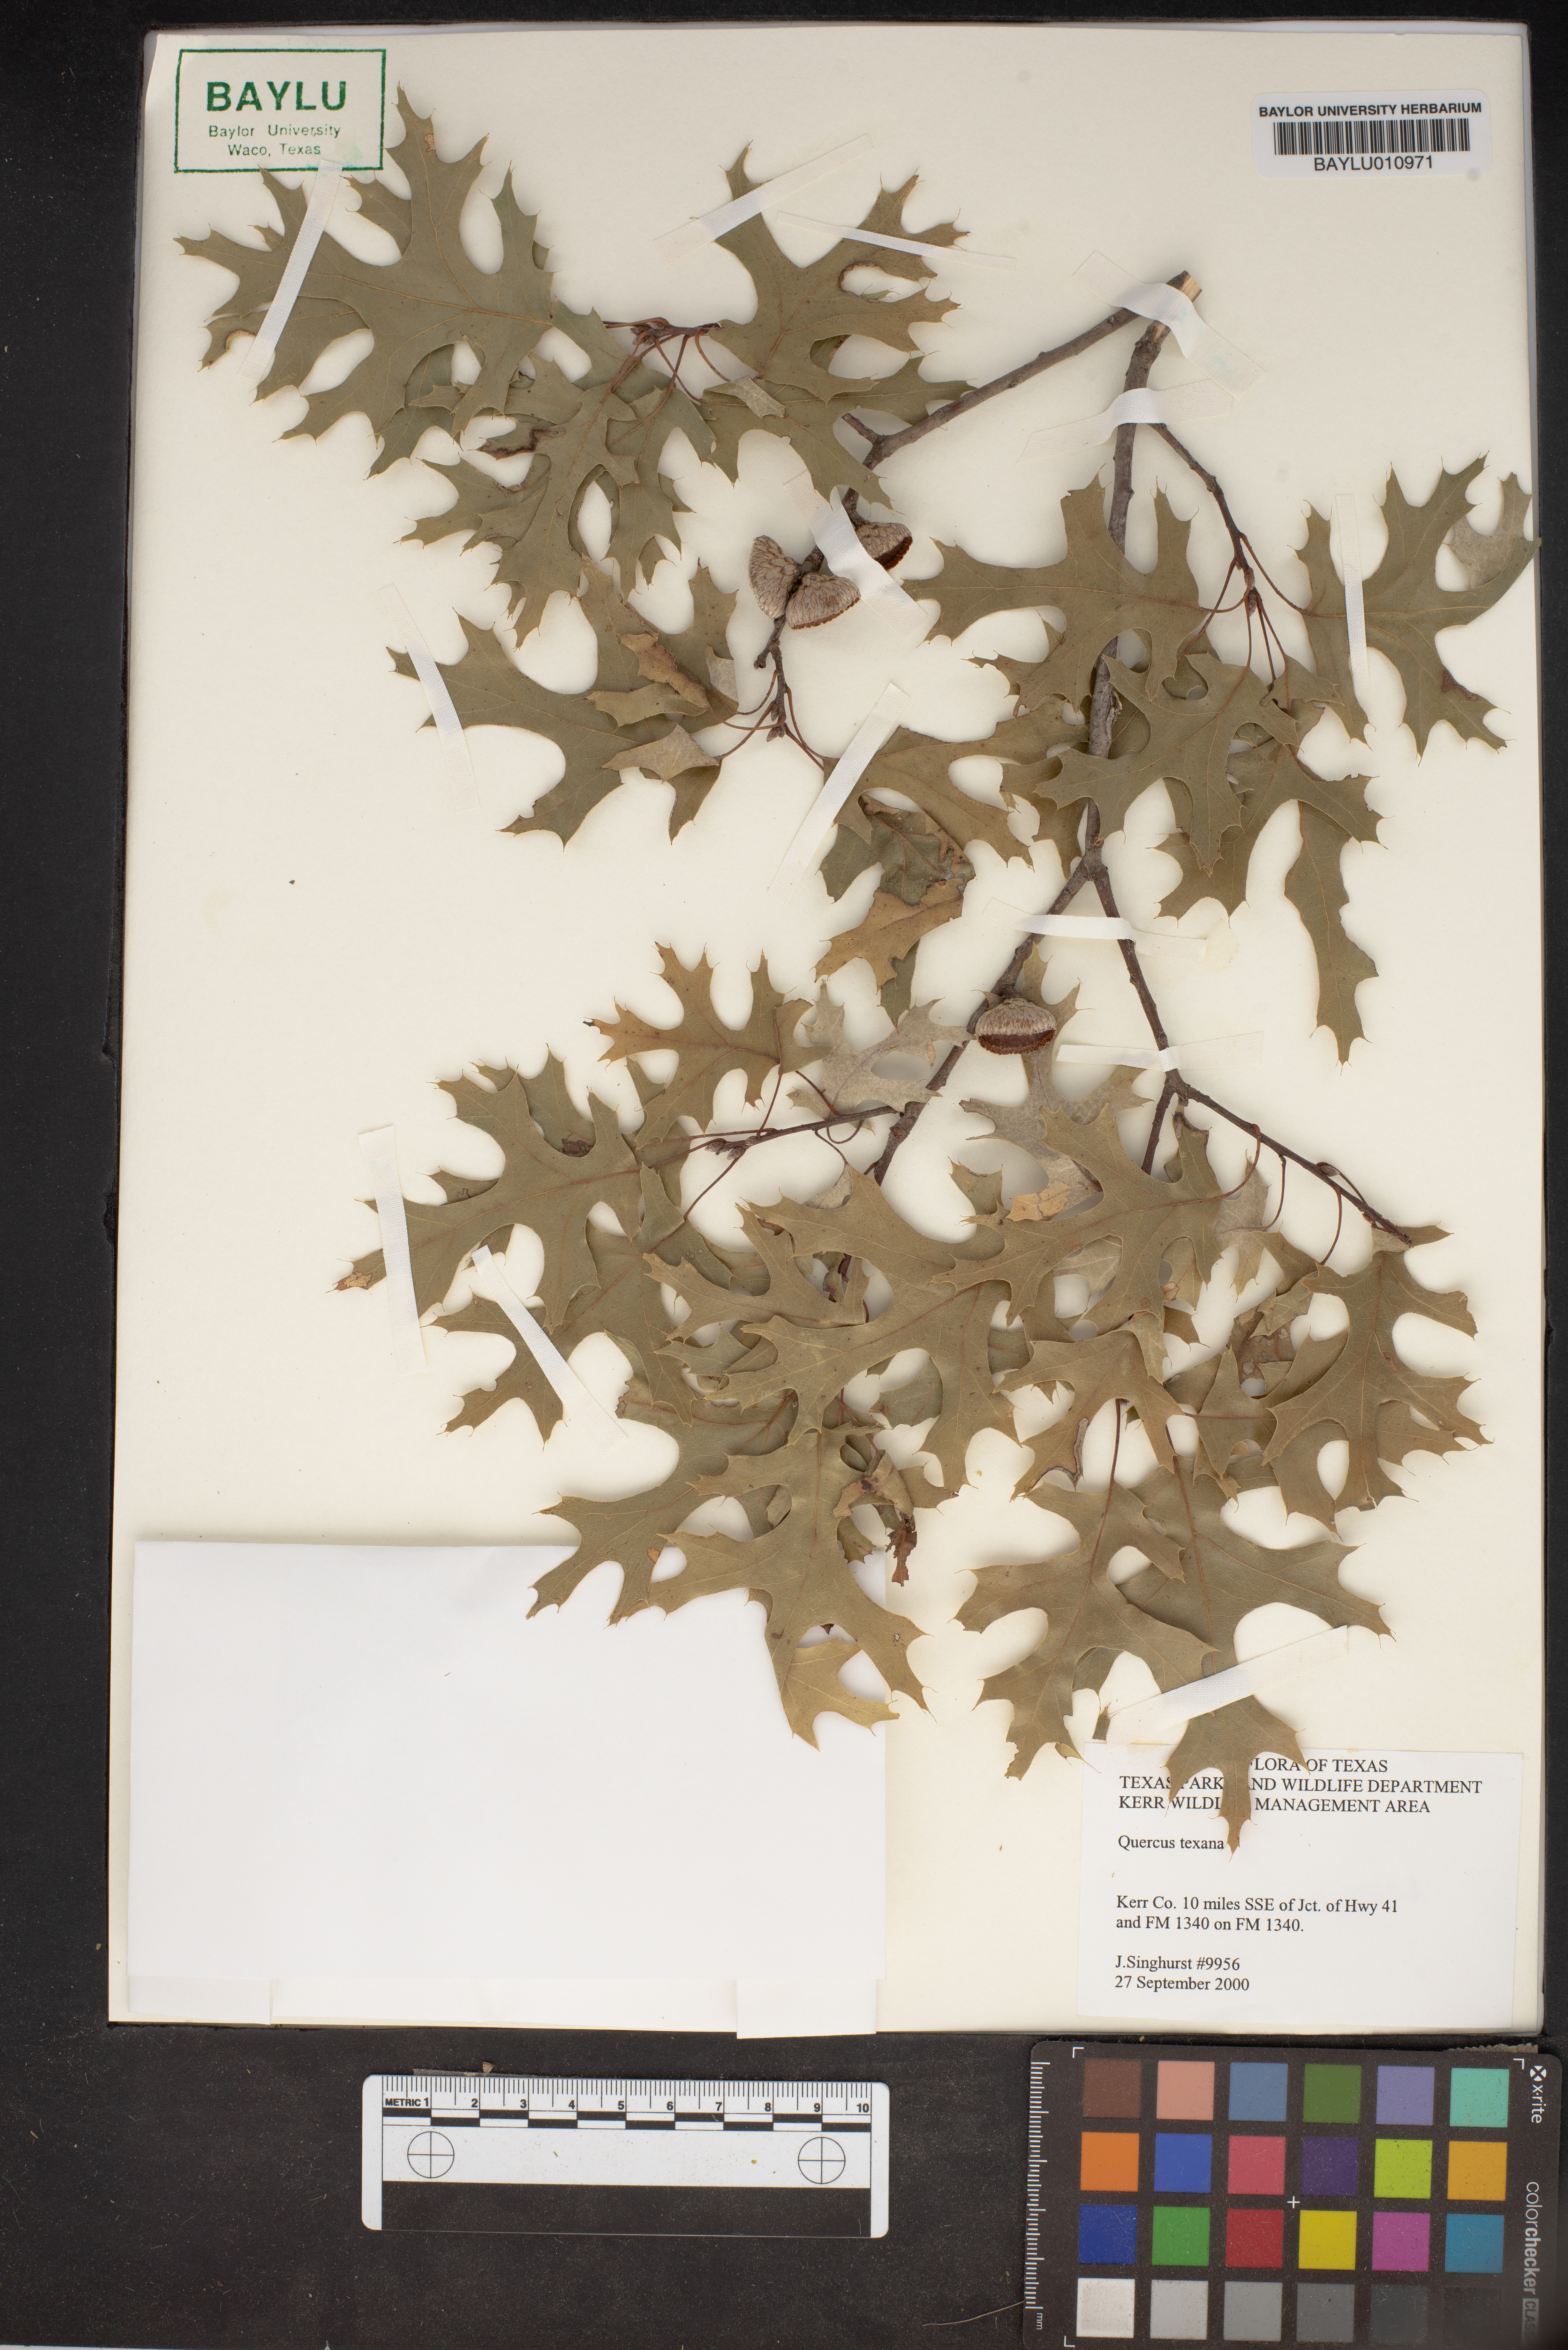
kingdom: Plantae
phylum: Tracheophyta
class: Magnoliopsida
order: Fagales
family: Fagaceae
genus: Quercus
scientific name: Quercus texana
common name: Nuttall oak
